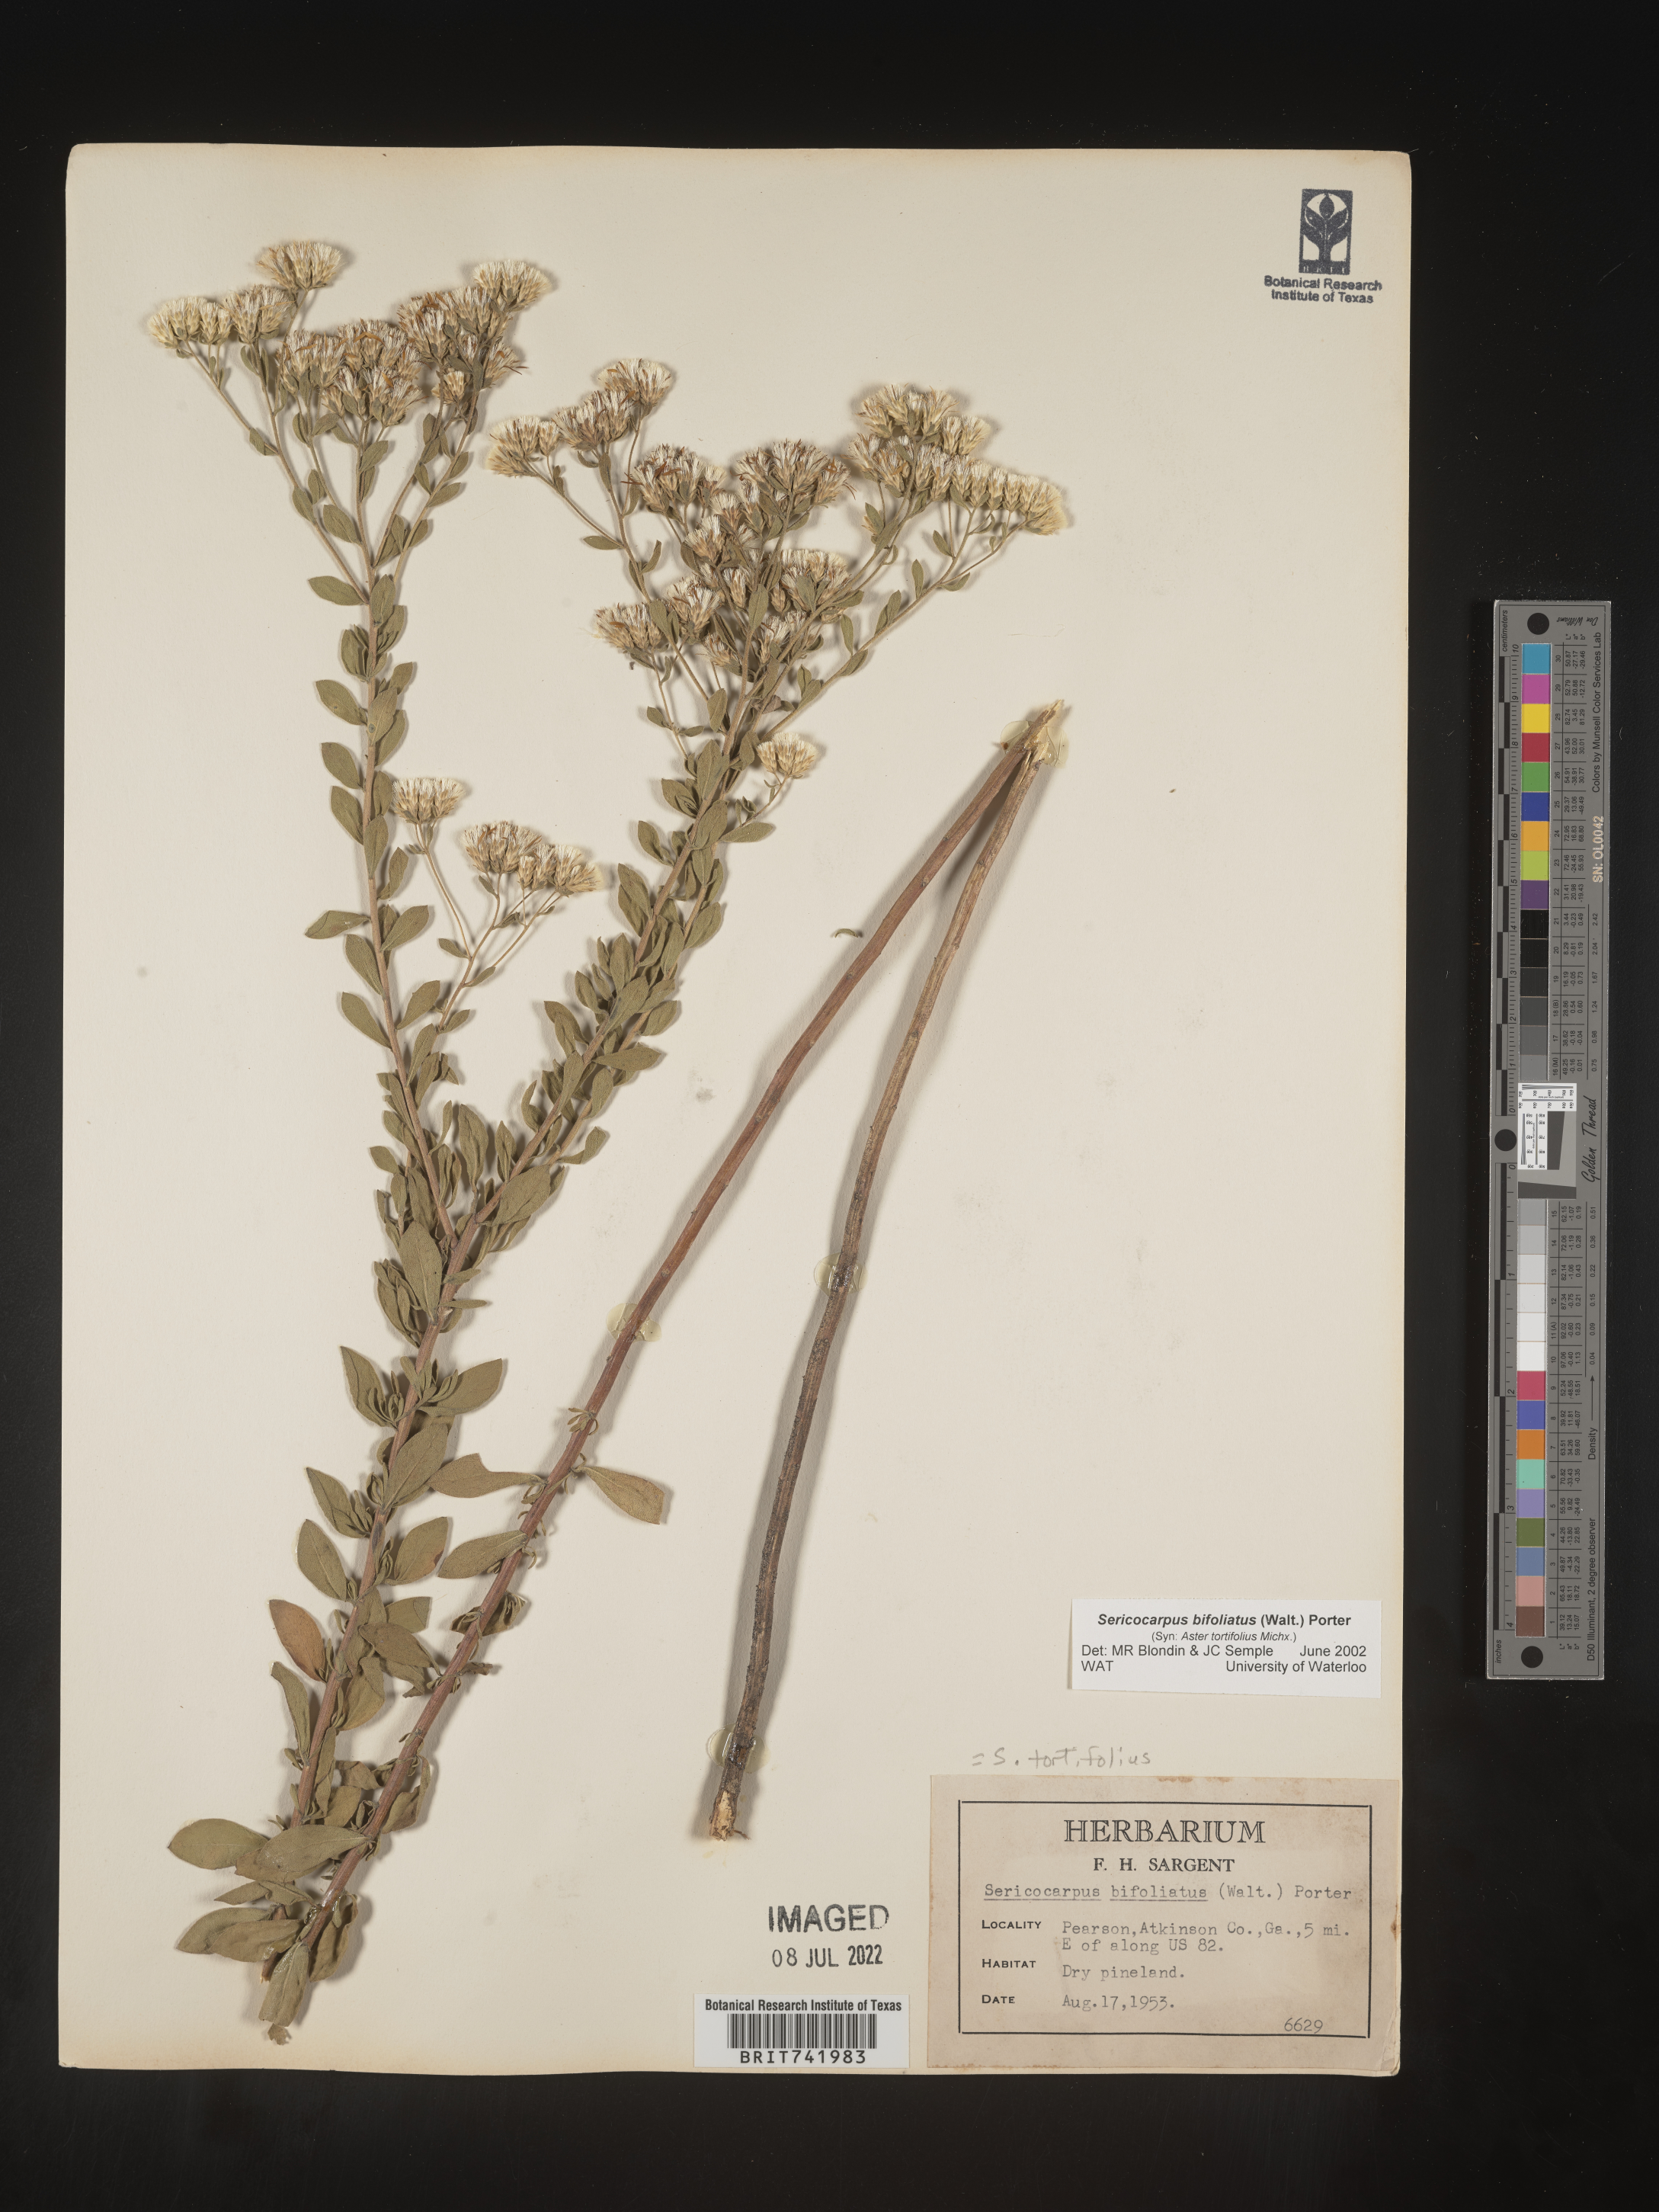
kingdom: Plantae
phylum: Tracheophyta
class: Magnoliopsida
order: Asterales
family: Asteraceae
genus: Sericocarpus
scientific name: Sericocarpus tortifolius
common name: Dixie aster
